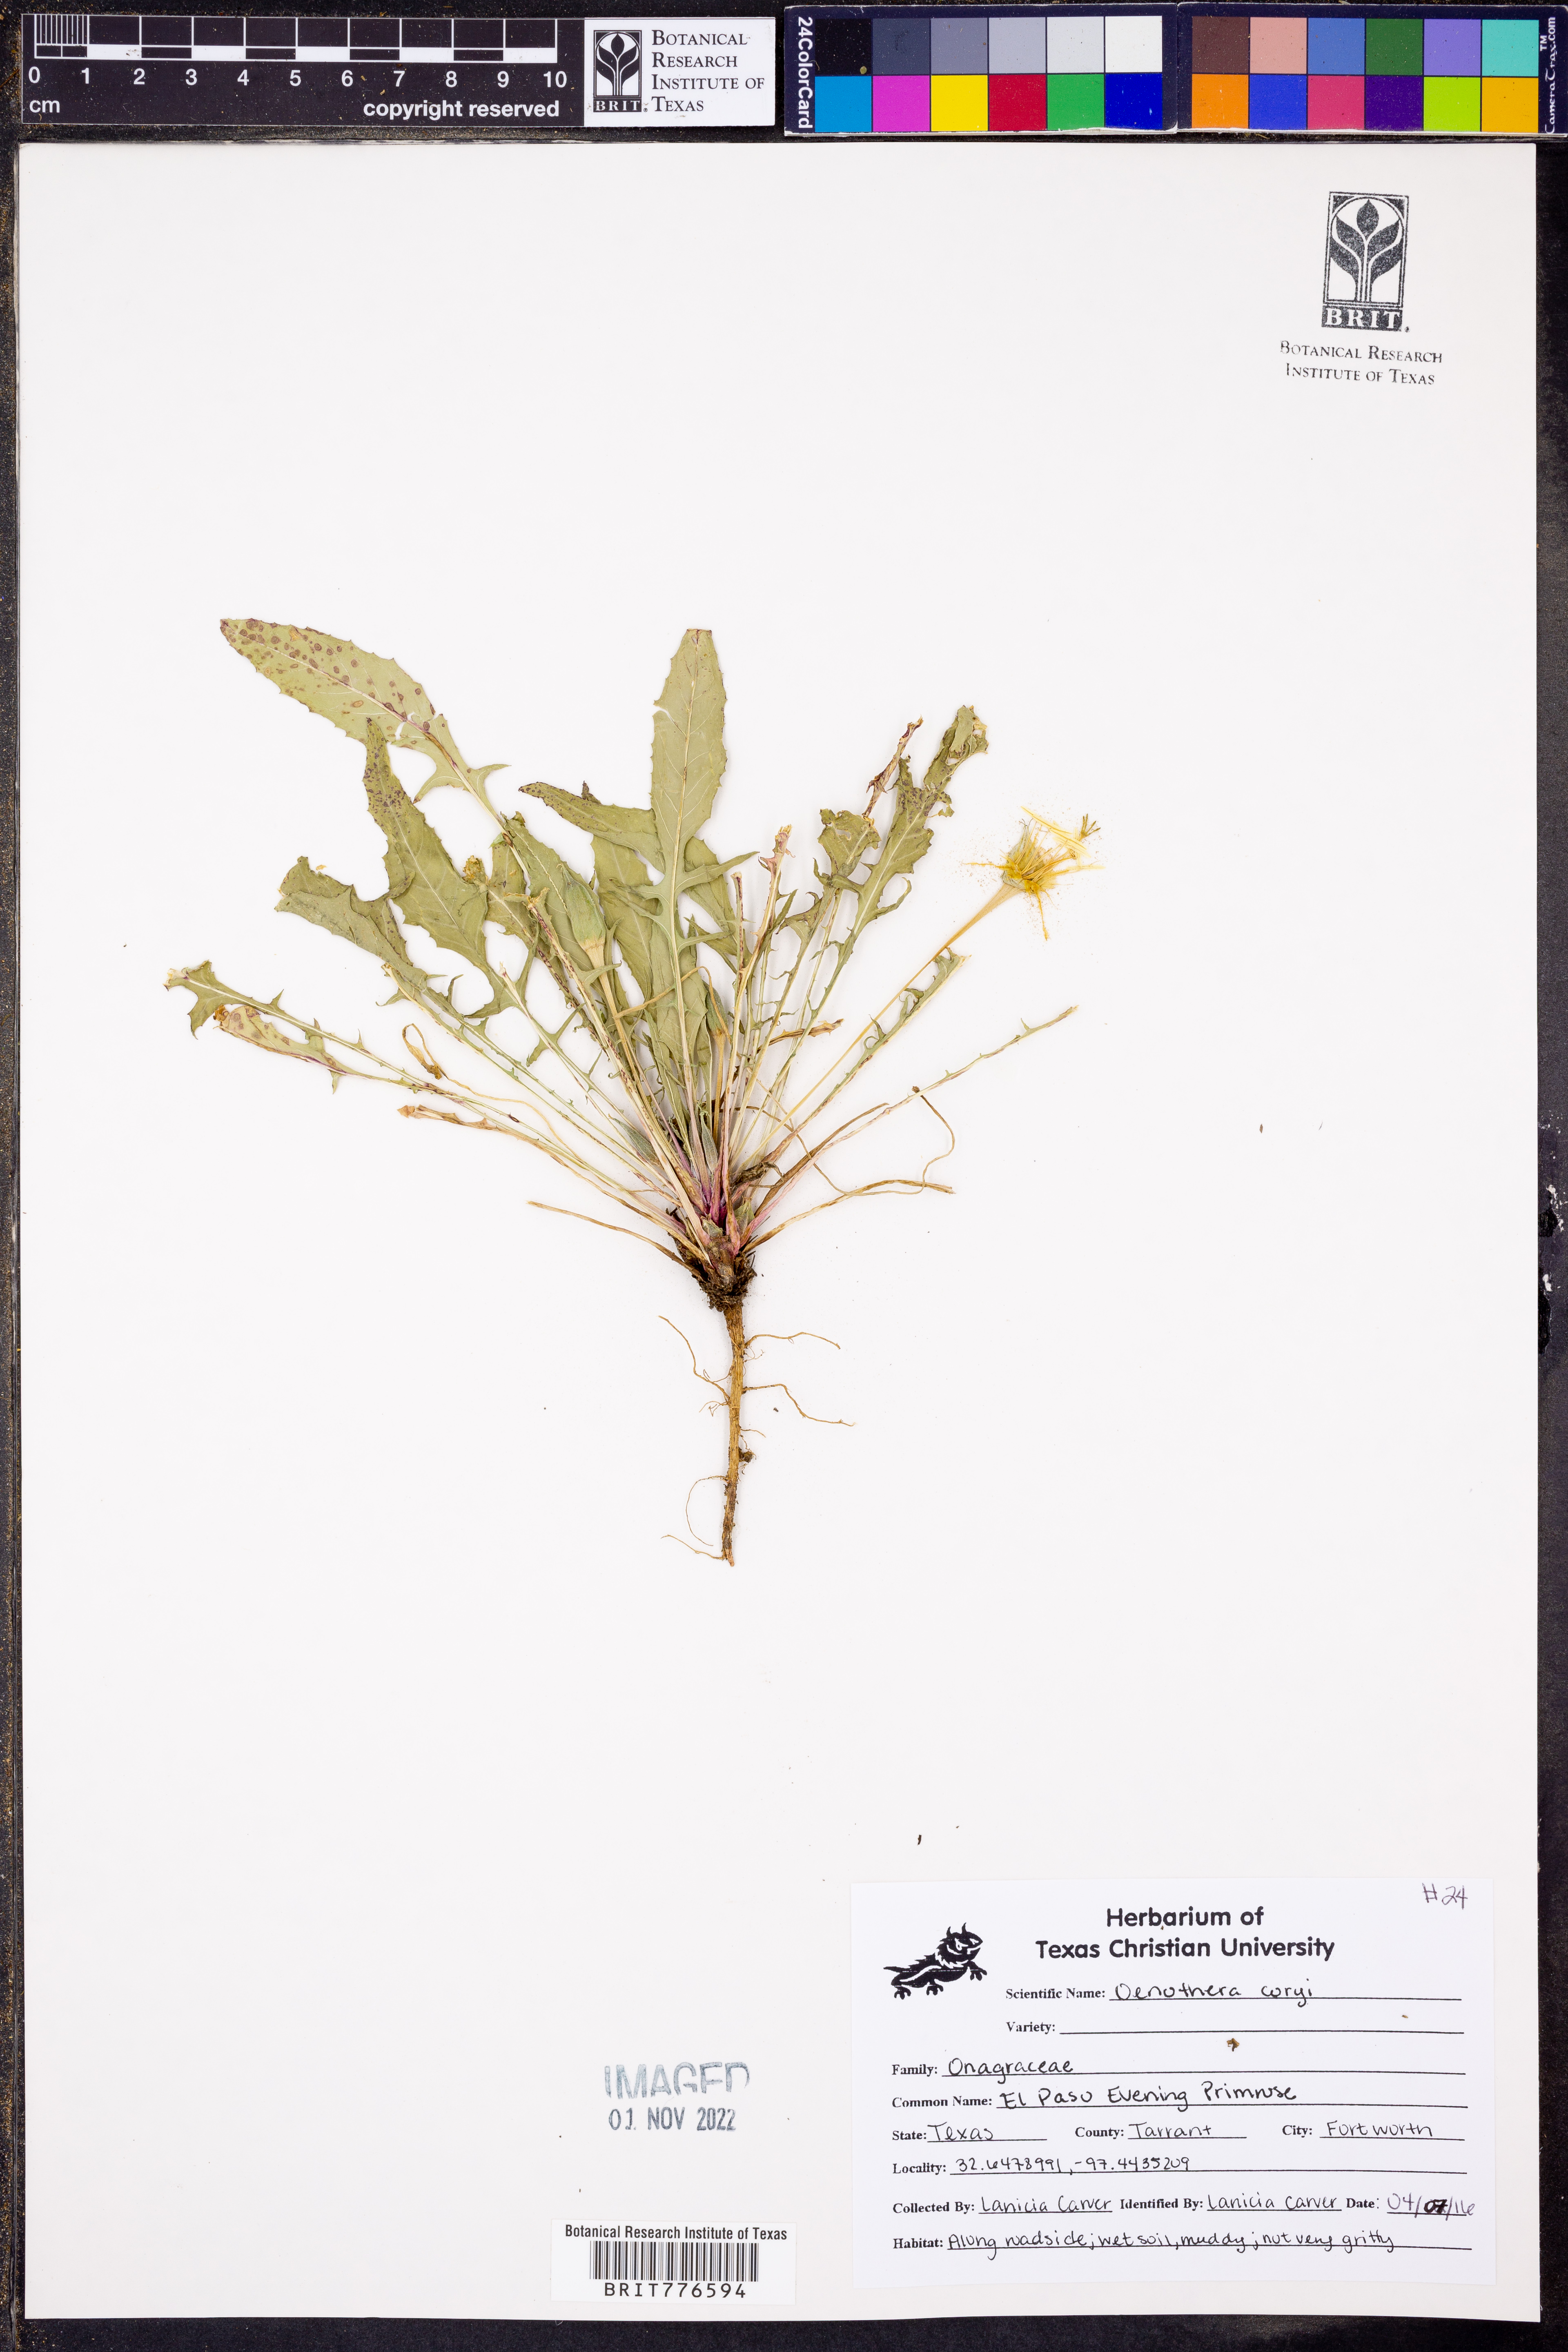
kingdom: Plantae
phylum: Tracheophyta
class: Magnoliopsida
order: Myrtales
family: Onagraceae
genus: Oenothera
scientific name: Oenothera coryi
